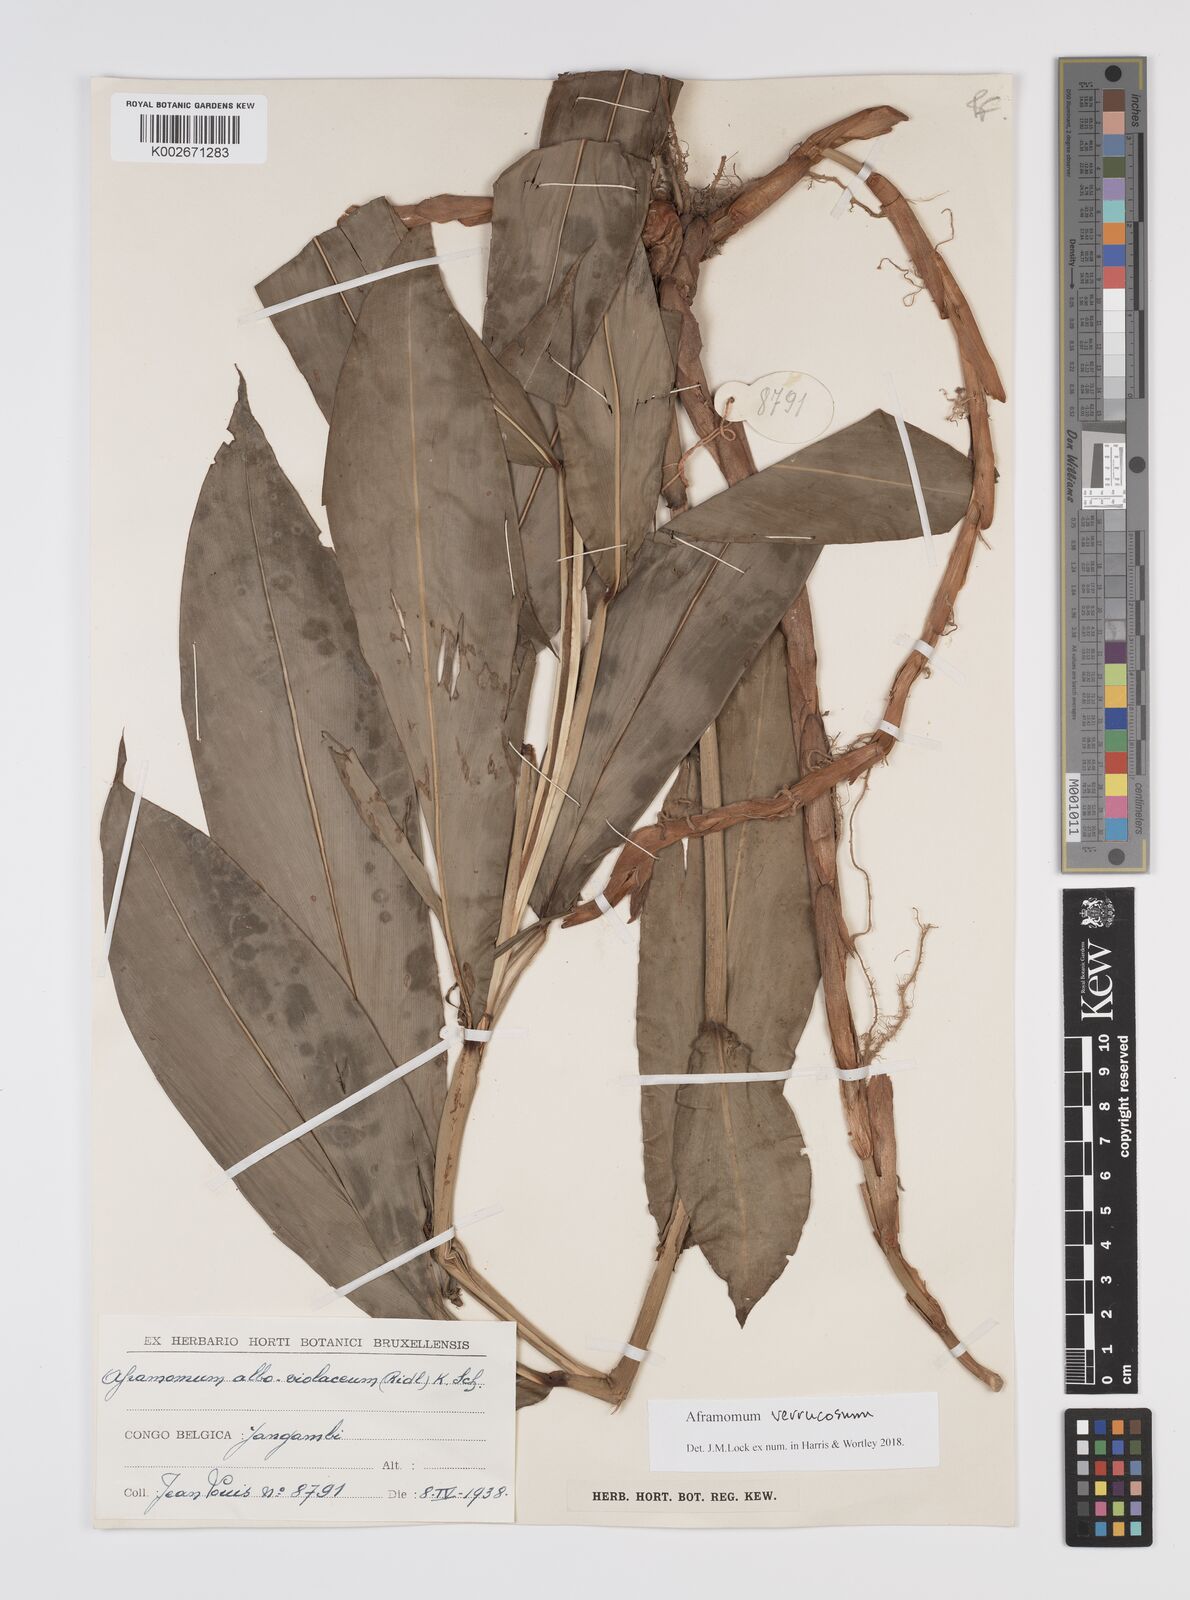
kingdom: Plantae
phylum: Tracheophyta
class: Liliopsida
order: Zingiberales
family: Zingiberaceae
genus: Aframomum
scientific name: Aframomum verrucosum
